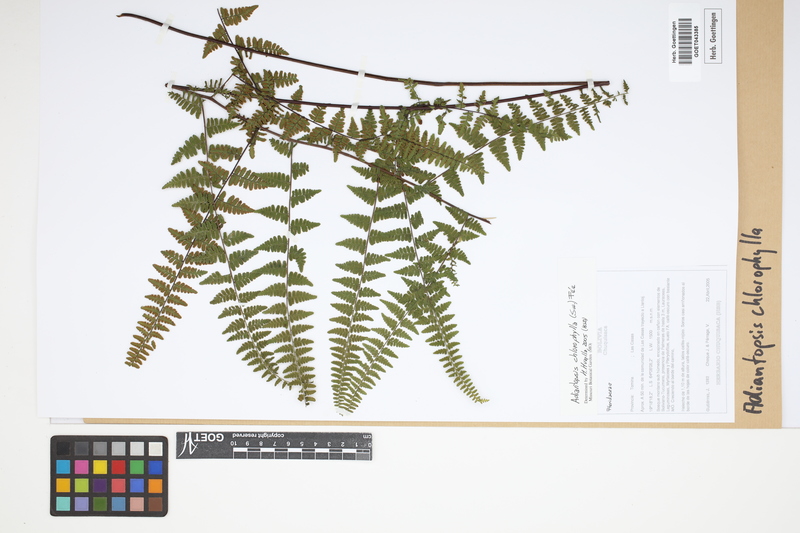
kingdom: Plantae
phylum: Tracheophyta
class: Polypodiopsida
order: Polypodiales
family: Pteridaceae
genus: Adiantopsis
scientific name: Adiantopsis chlorophylla
